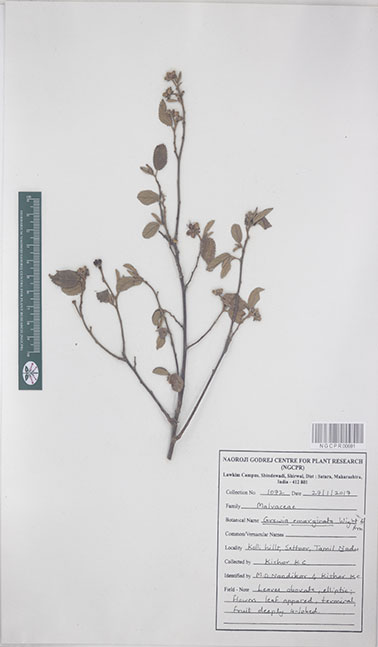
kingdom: Plantae
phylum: Tracheophyta
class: Magnoliopsida
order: Malvales
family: Malvaceae
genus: Grewia
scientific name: Grewia oppositifolia
